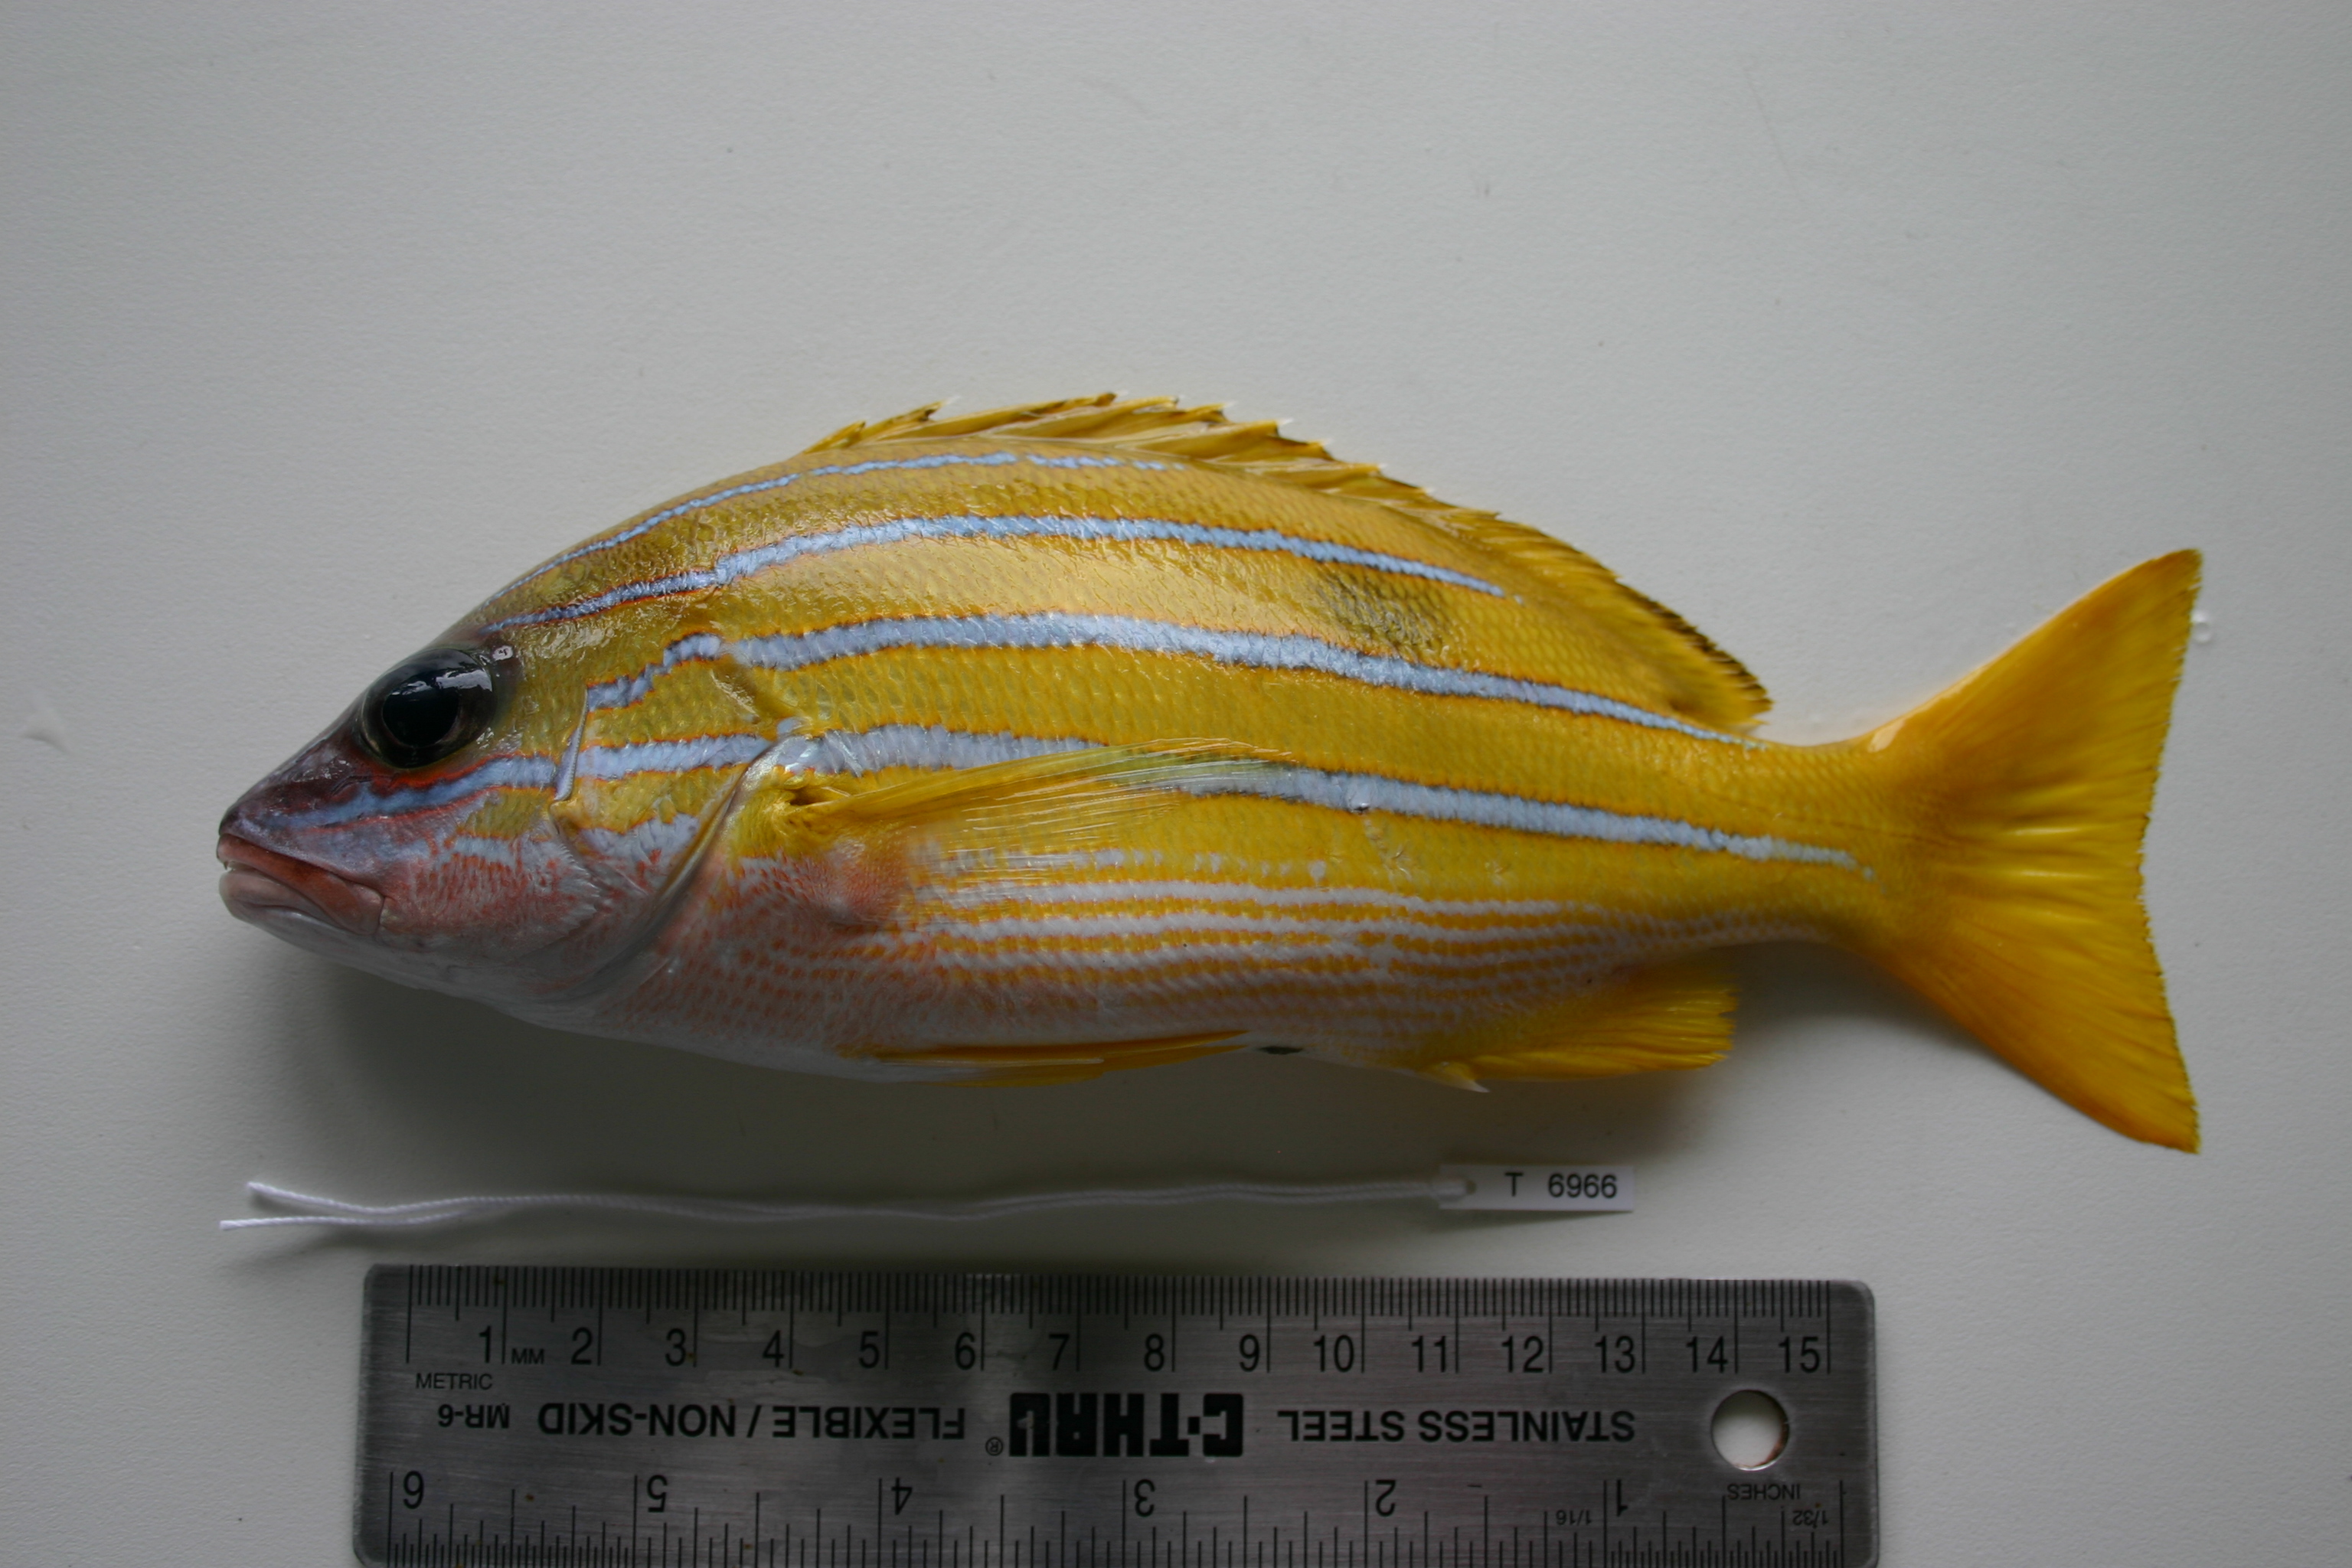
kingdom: Animalia
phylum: Chordata
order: Perciformes
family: Lutjanidae
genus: Lutjanus
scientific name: Lutjanus kasmira
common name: Common bluestripe snapper
